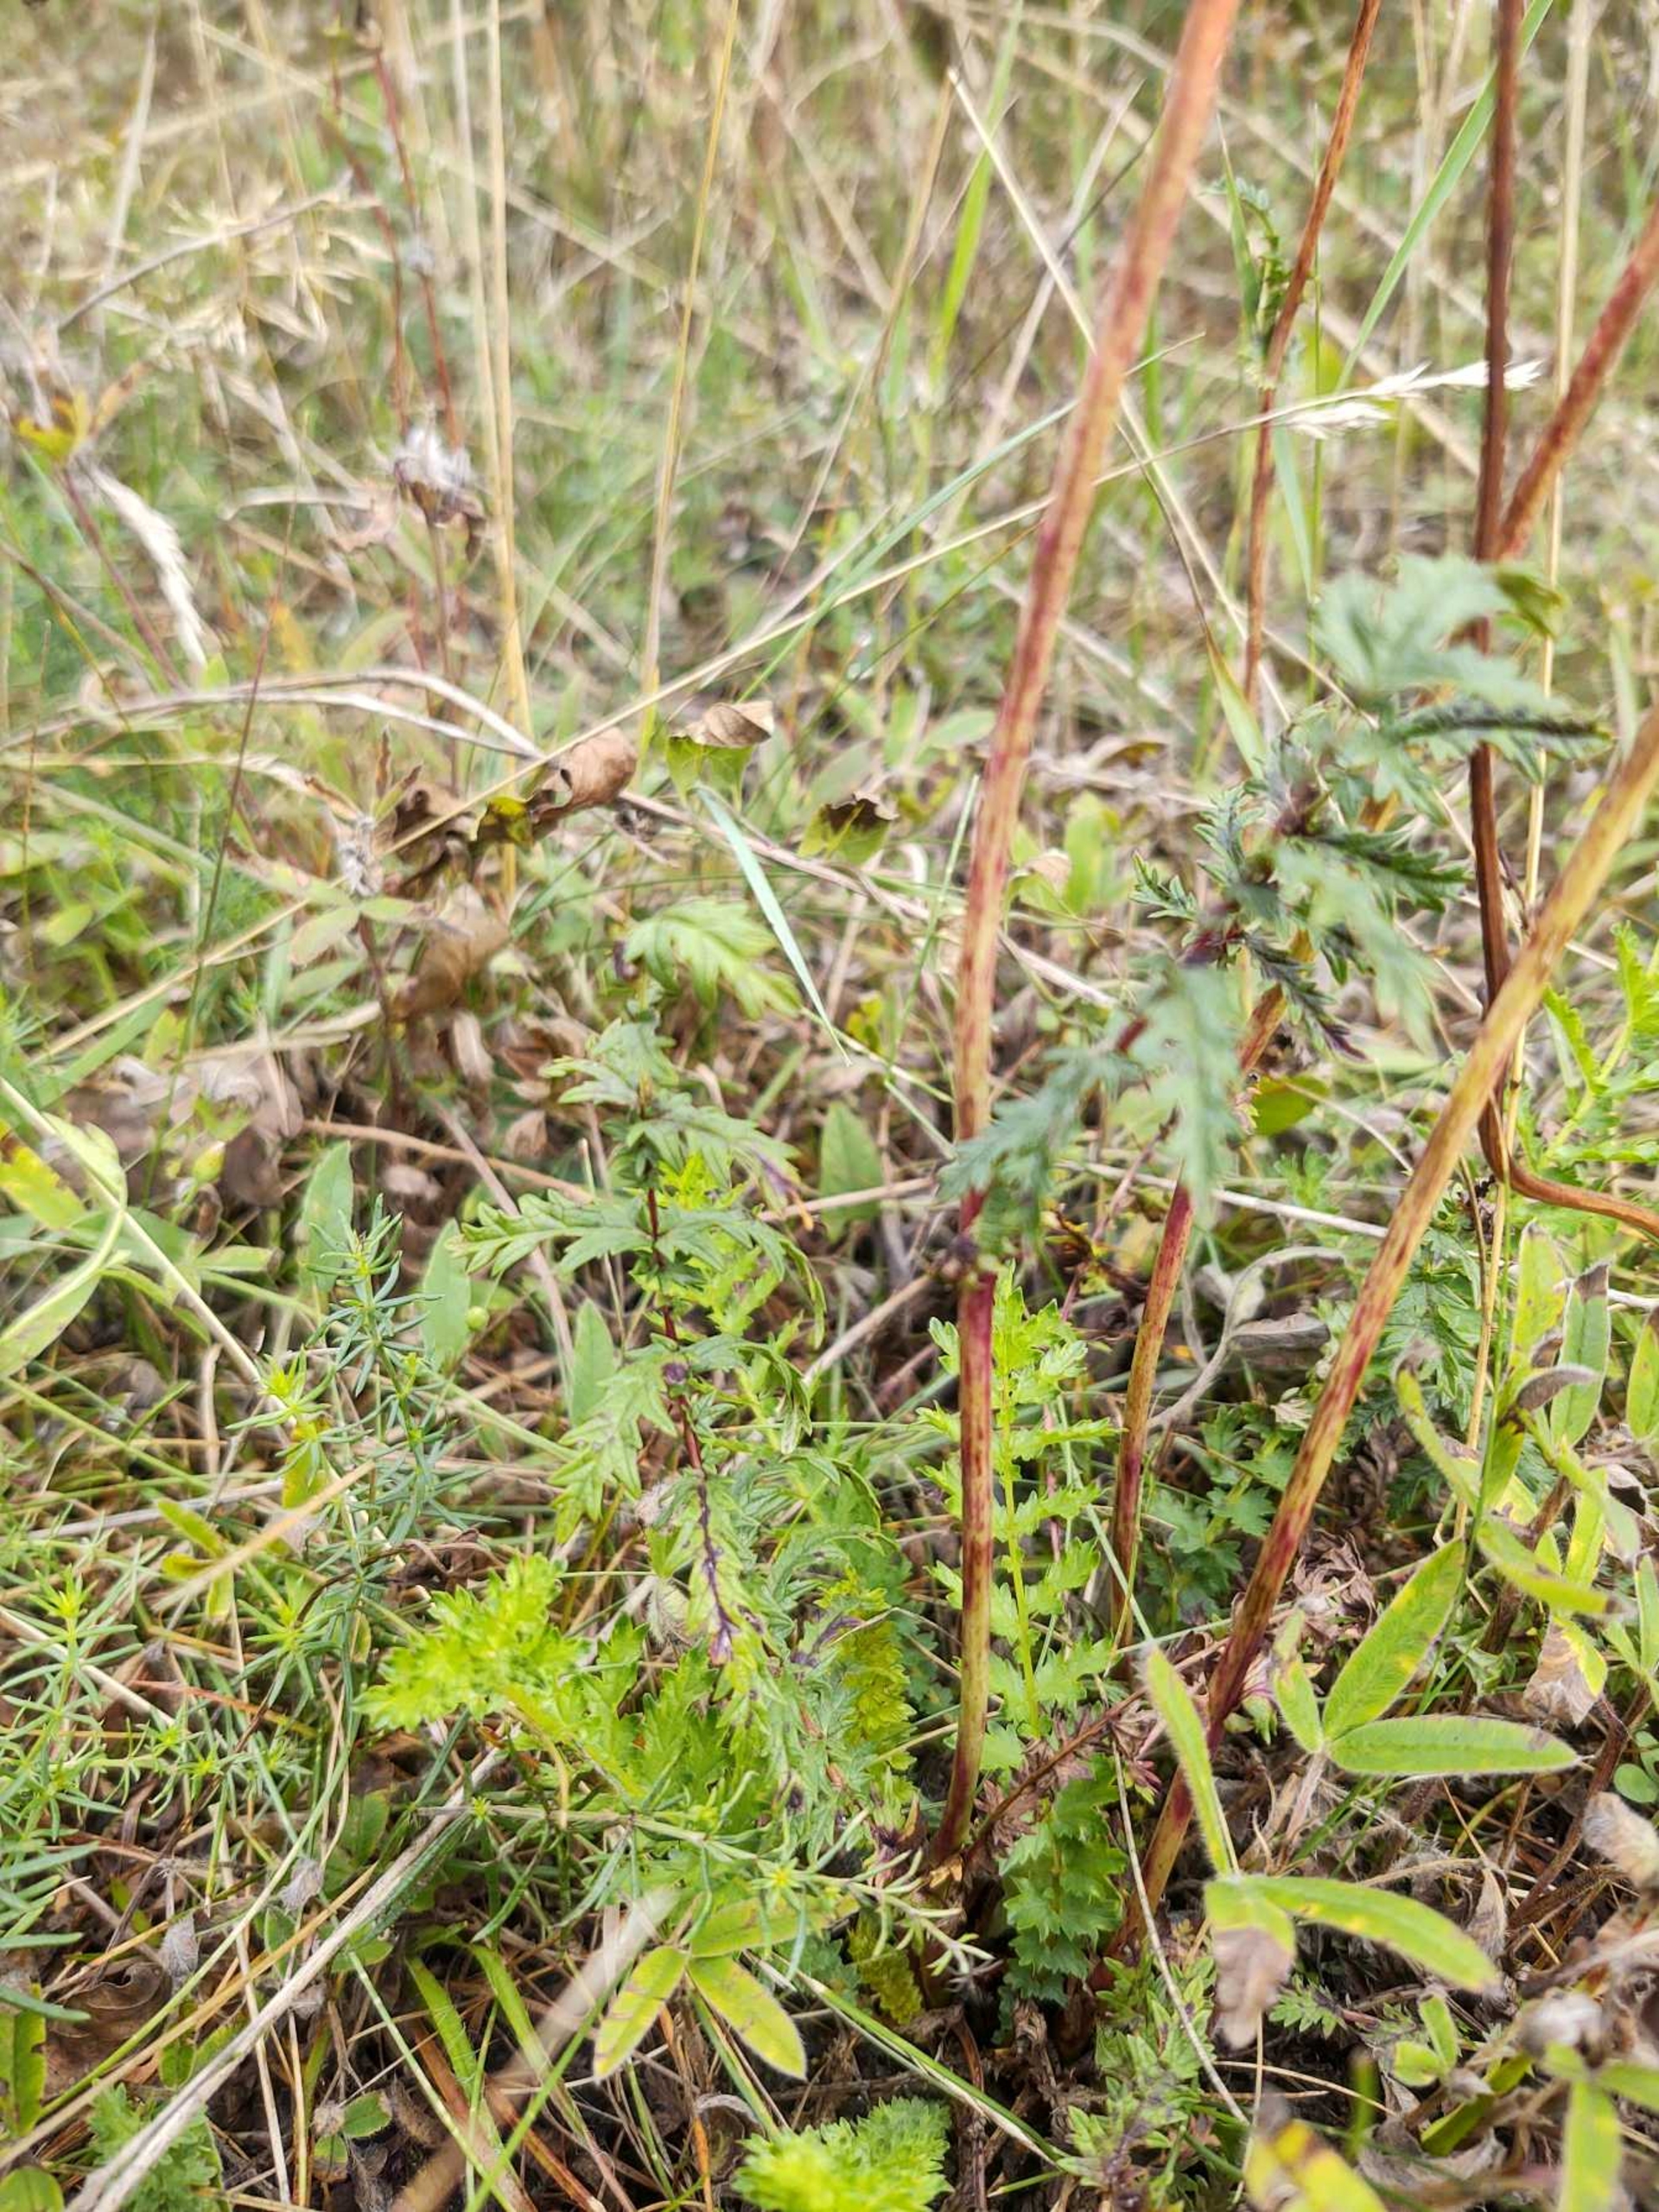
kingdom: Plantae
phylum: Tracheophyta
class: Magnoliopsida
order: Rosales
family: Rosaceae
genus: Filipendula
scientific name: Filipendula vulgaris
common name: Knoldet mjødurt
